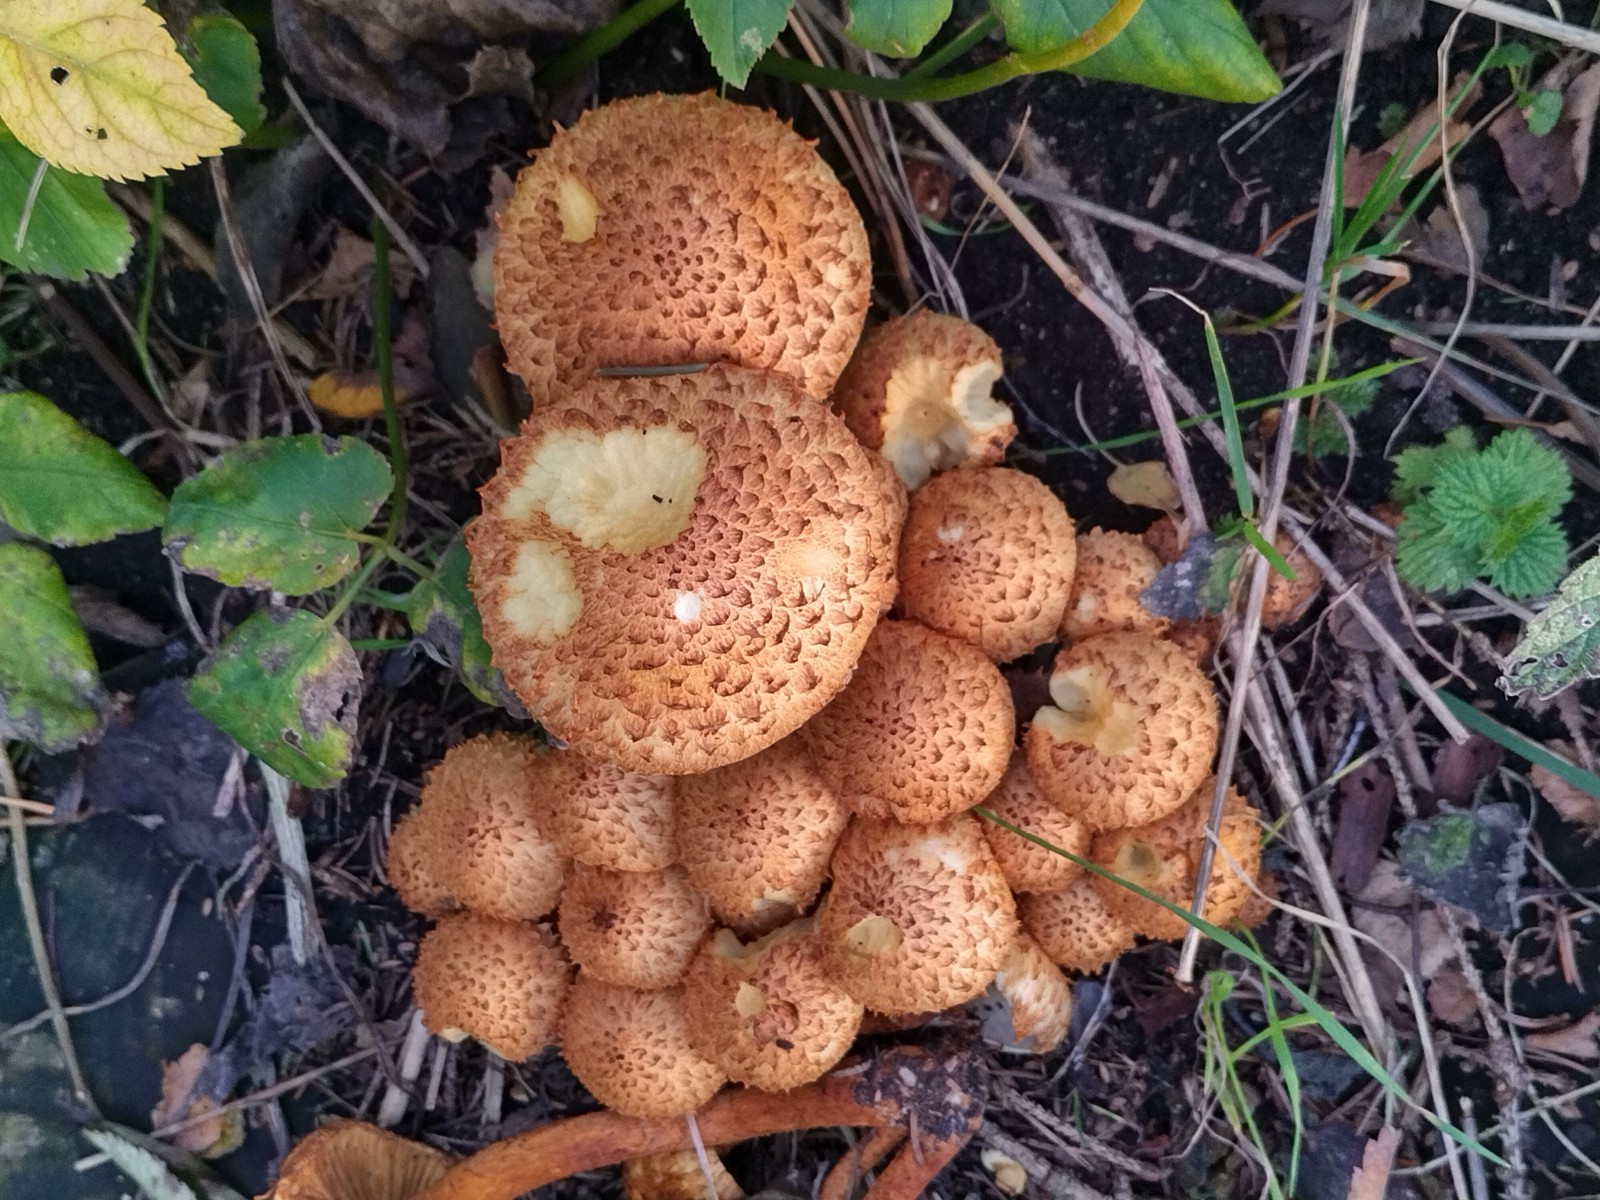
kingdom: Fungi
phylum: Basidiomycota
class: Agaricomycetes
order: Agaricales
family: Strophariaceae
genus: Pholiota
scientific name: Pholiota squarrosa
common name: krumskællet skælhat
